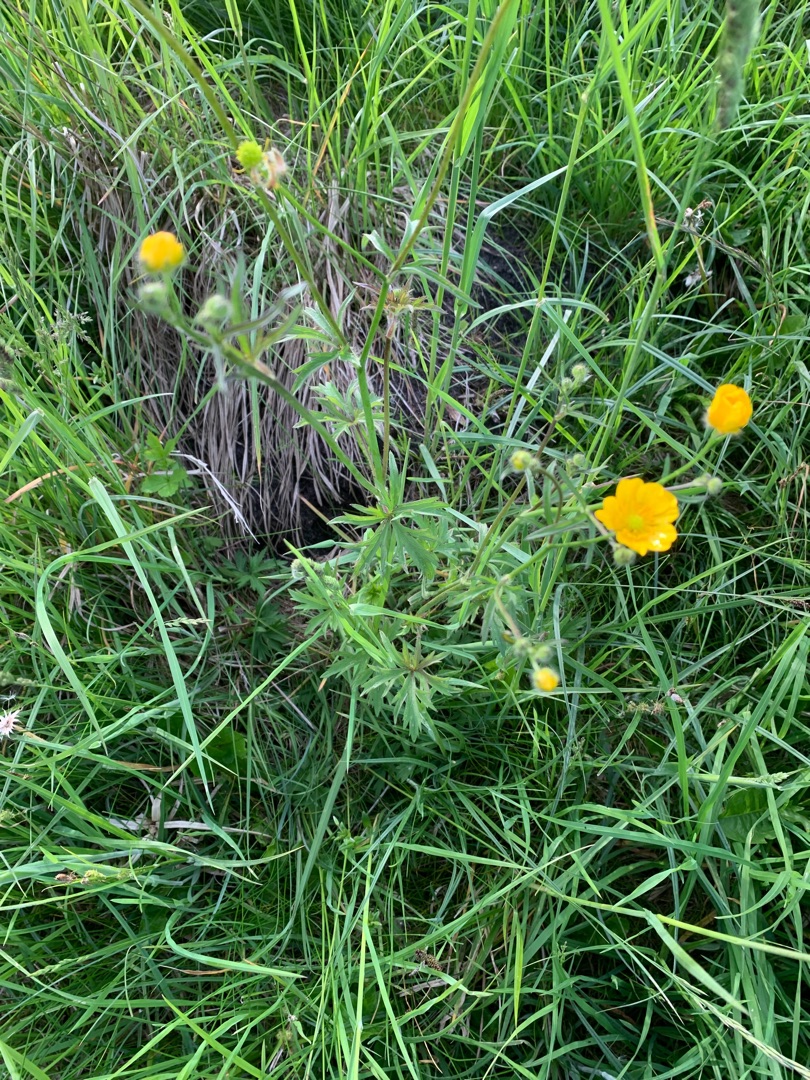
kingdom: Plantae
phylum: Tracheophyta
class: Magnoliopsida
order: Ranunculales
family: Ranunculaceae
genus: Ranunculus
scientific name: Ranunculus acris
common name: Bidende ranunkel
